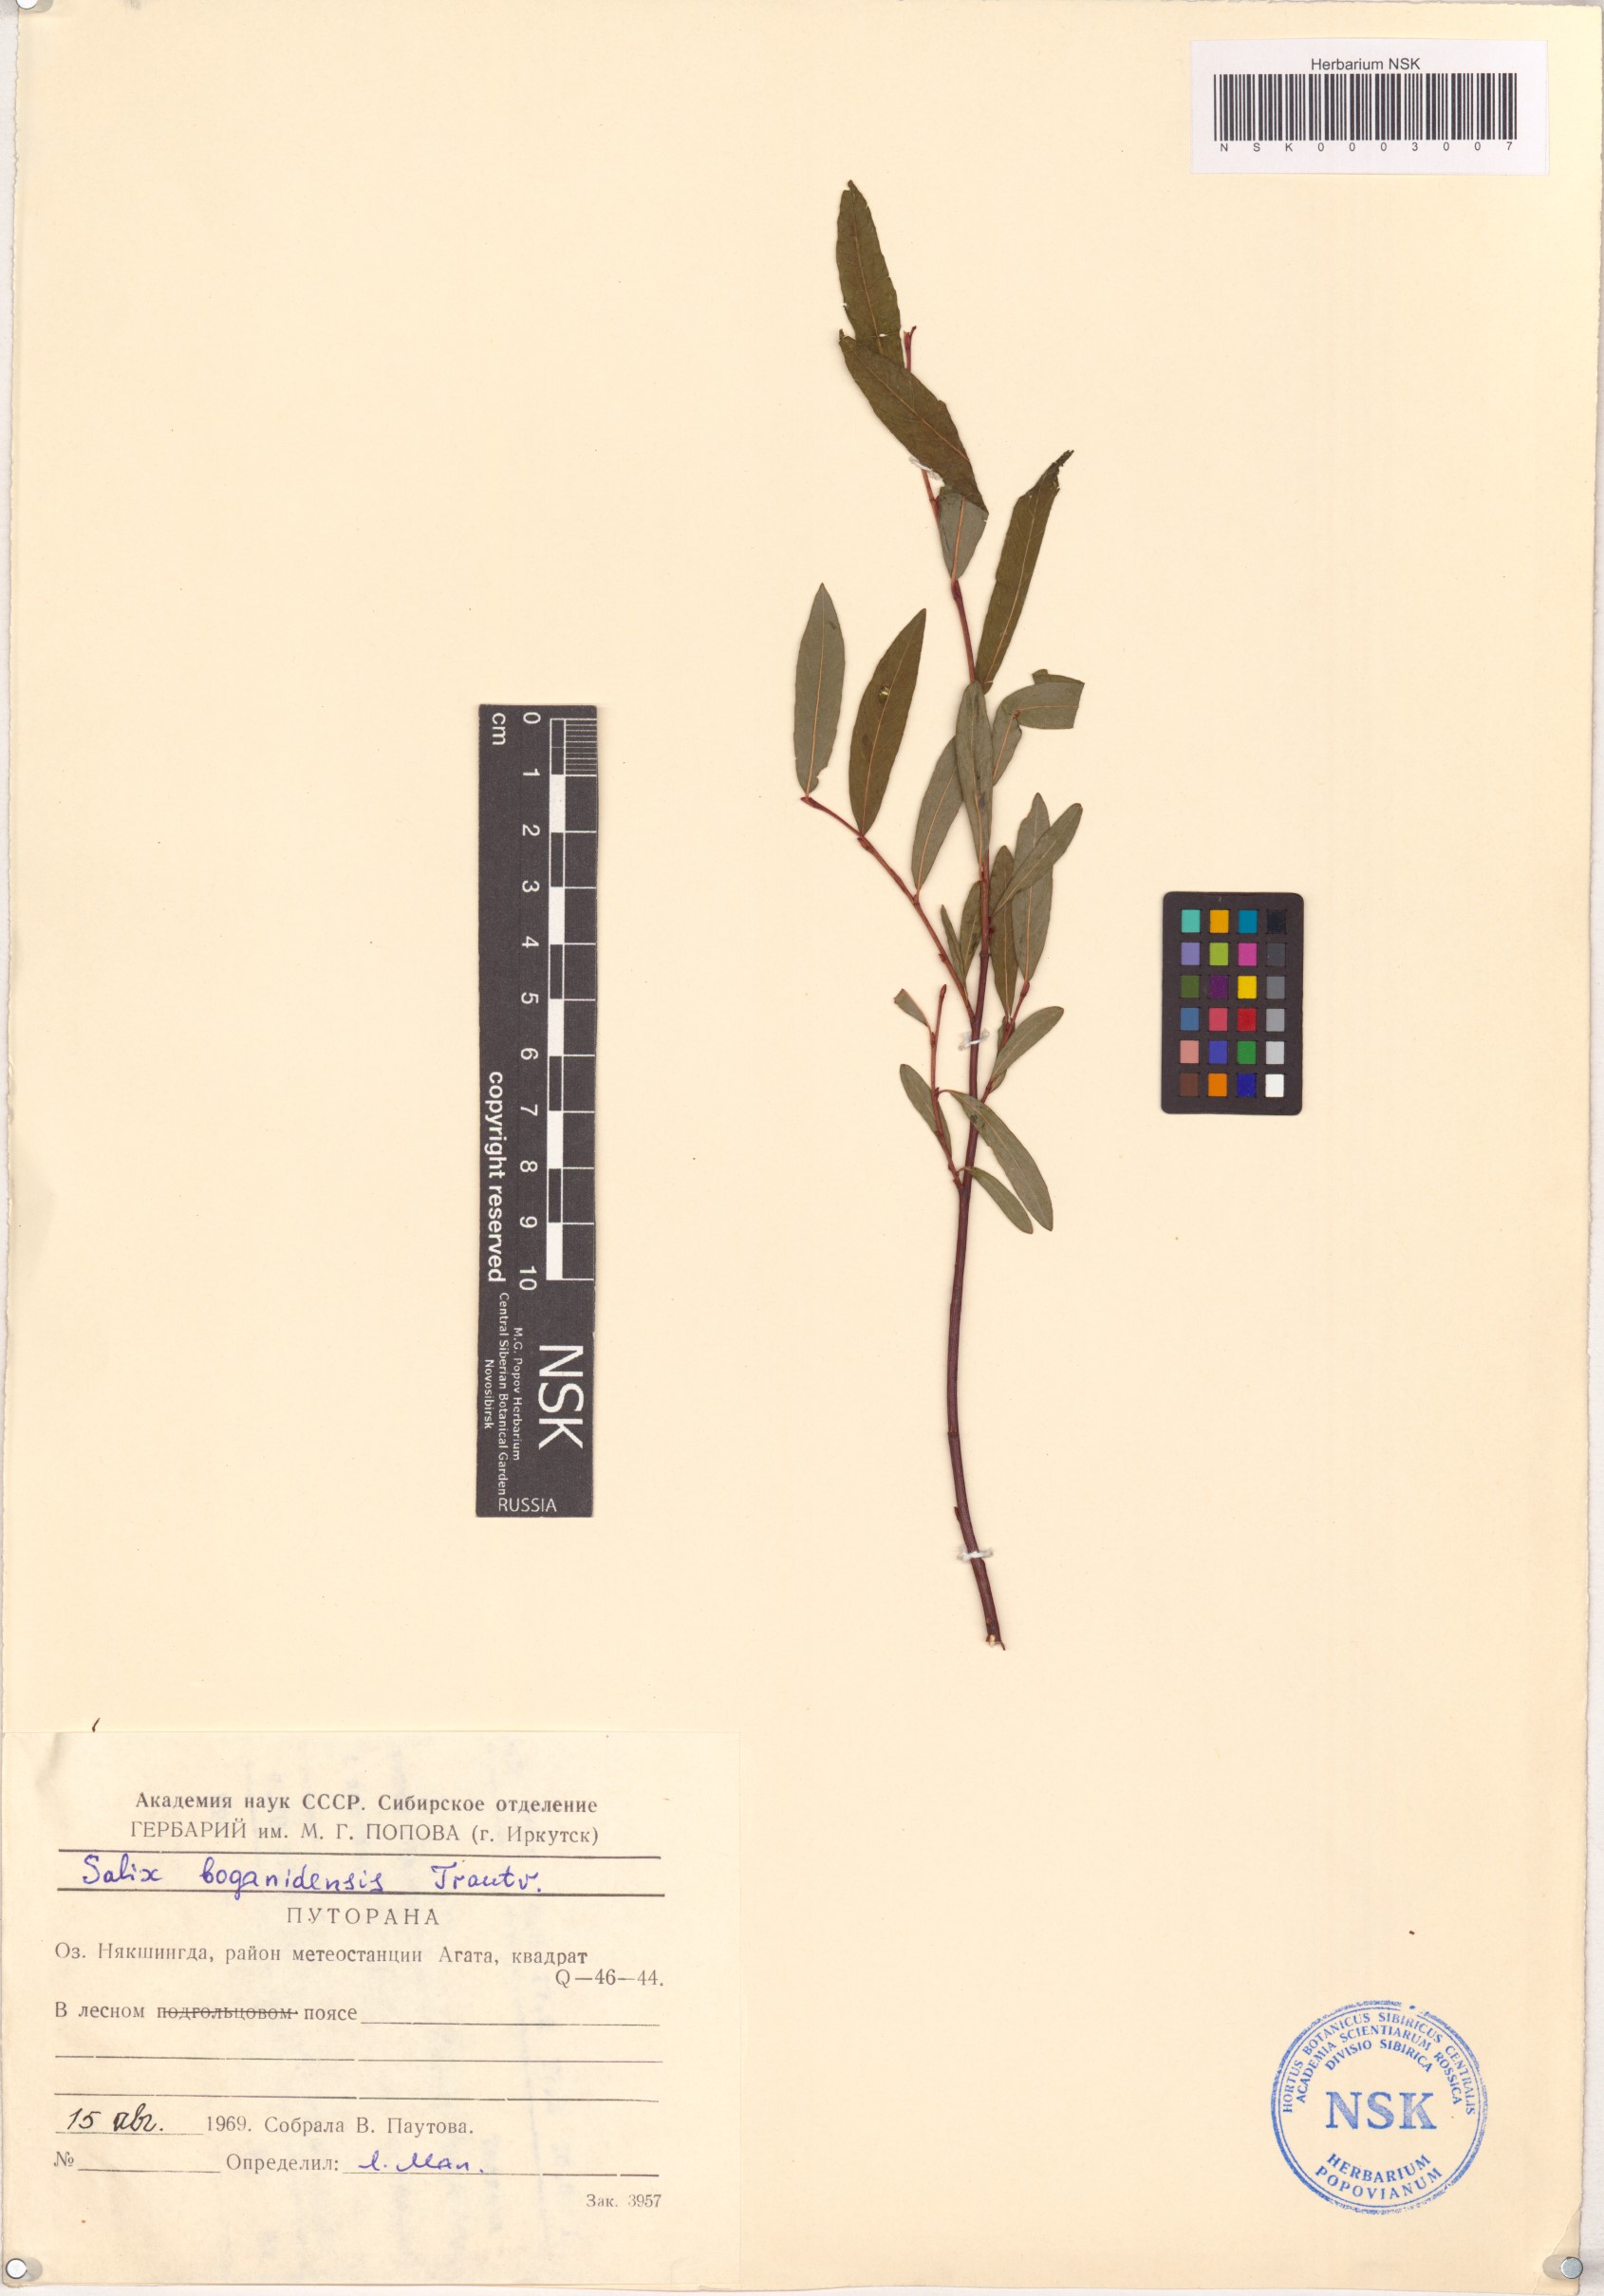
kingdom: Plantae
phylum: Tracheophyta
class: Magnoliopsida
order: Malpighiales
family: Salicaceae
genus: Salix
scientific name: Salix boganidensis
